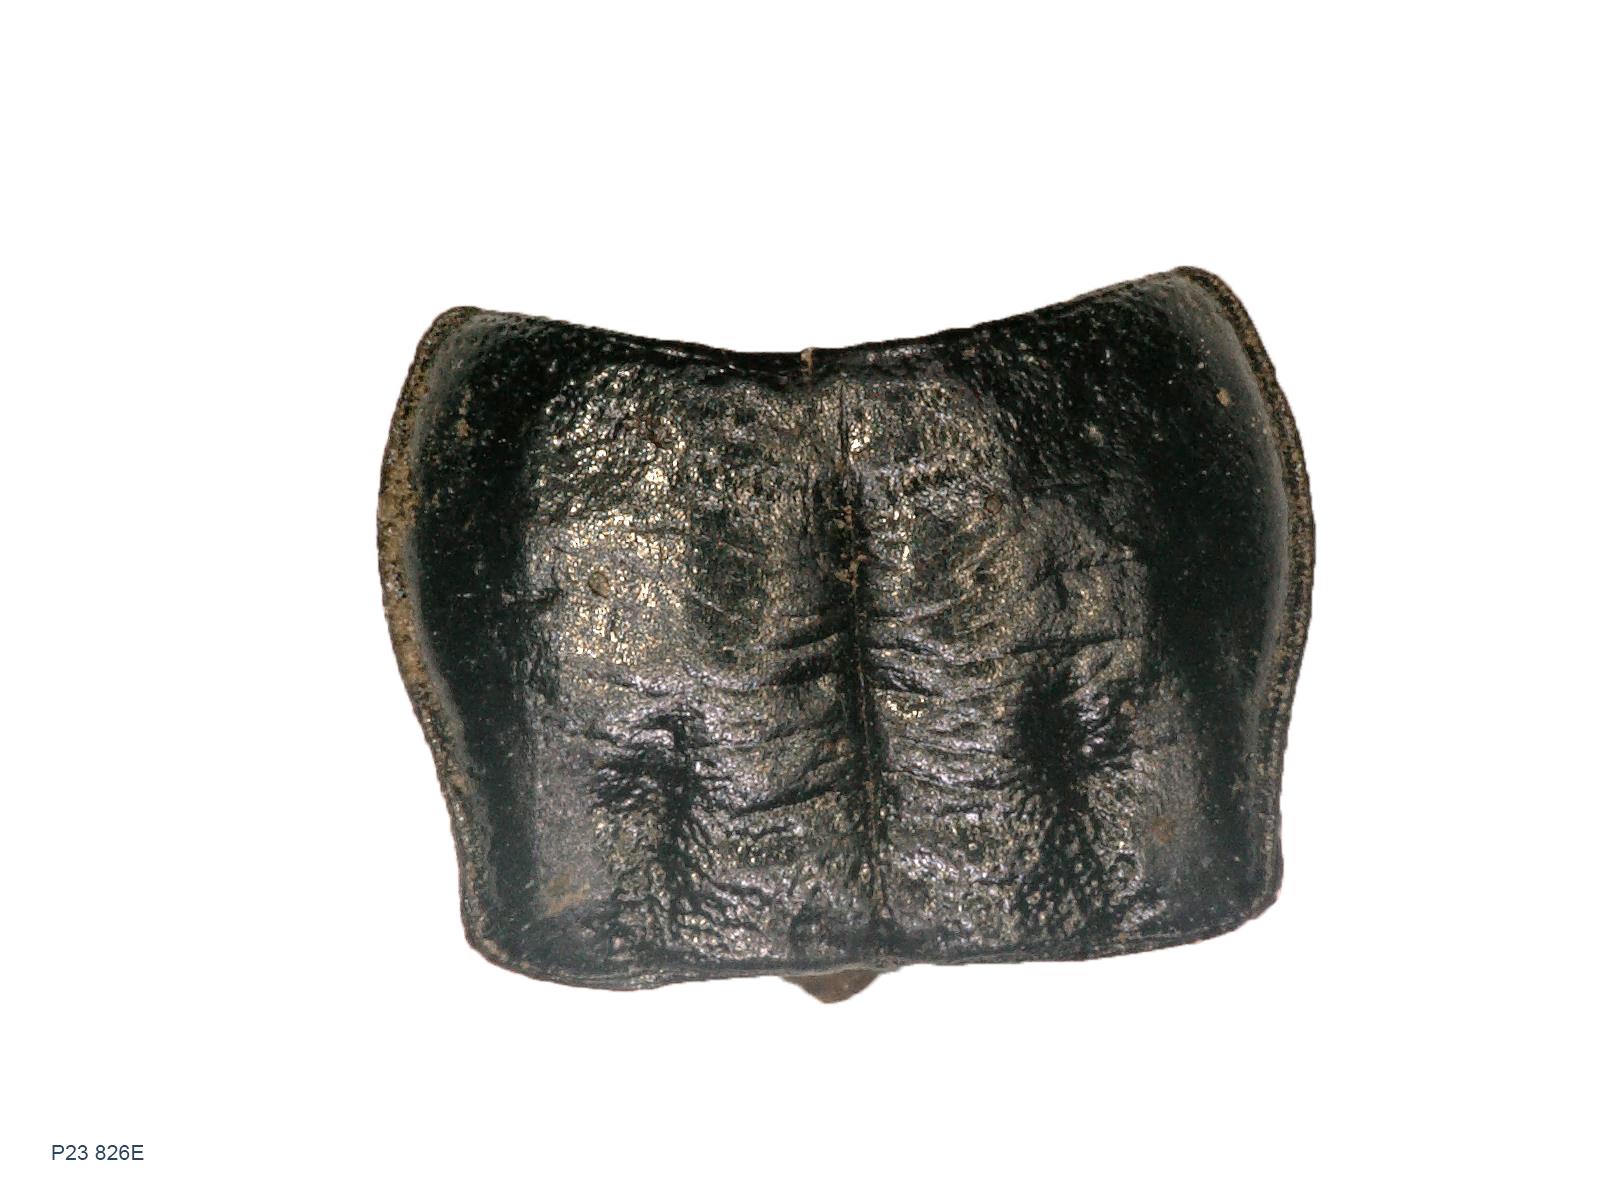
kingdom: Animalia
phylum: Arthropoda
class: Insecta
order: Coleoptera
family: Carabidae
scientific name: Carabidae
